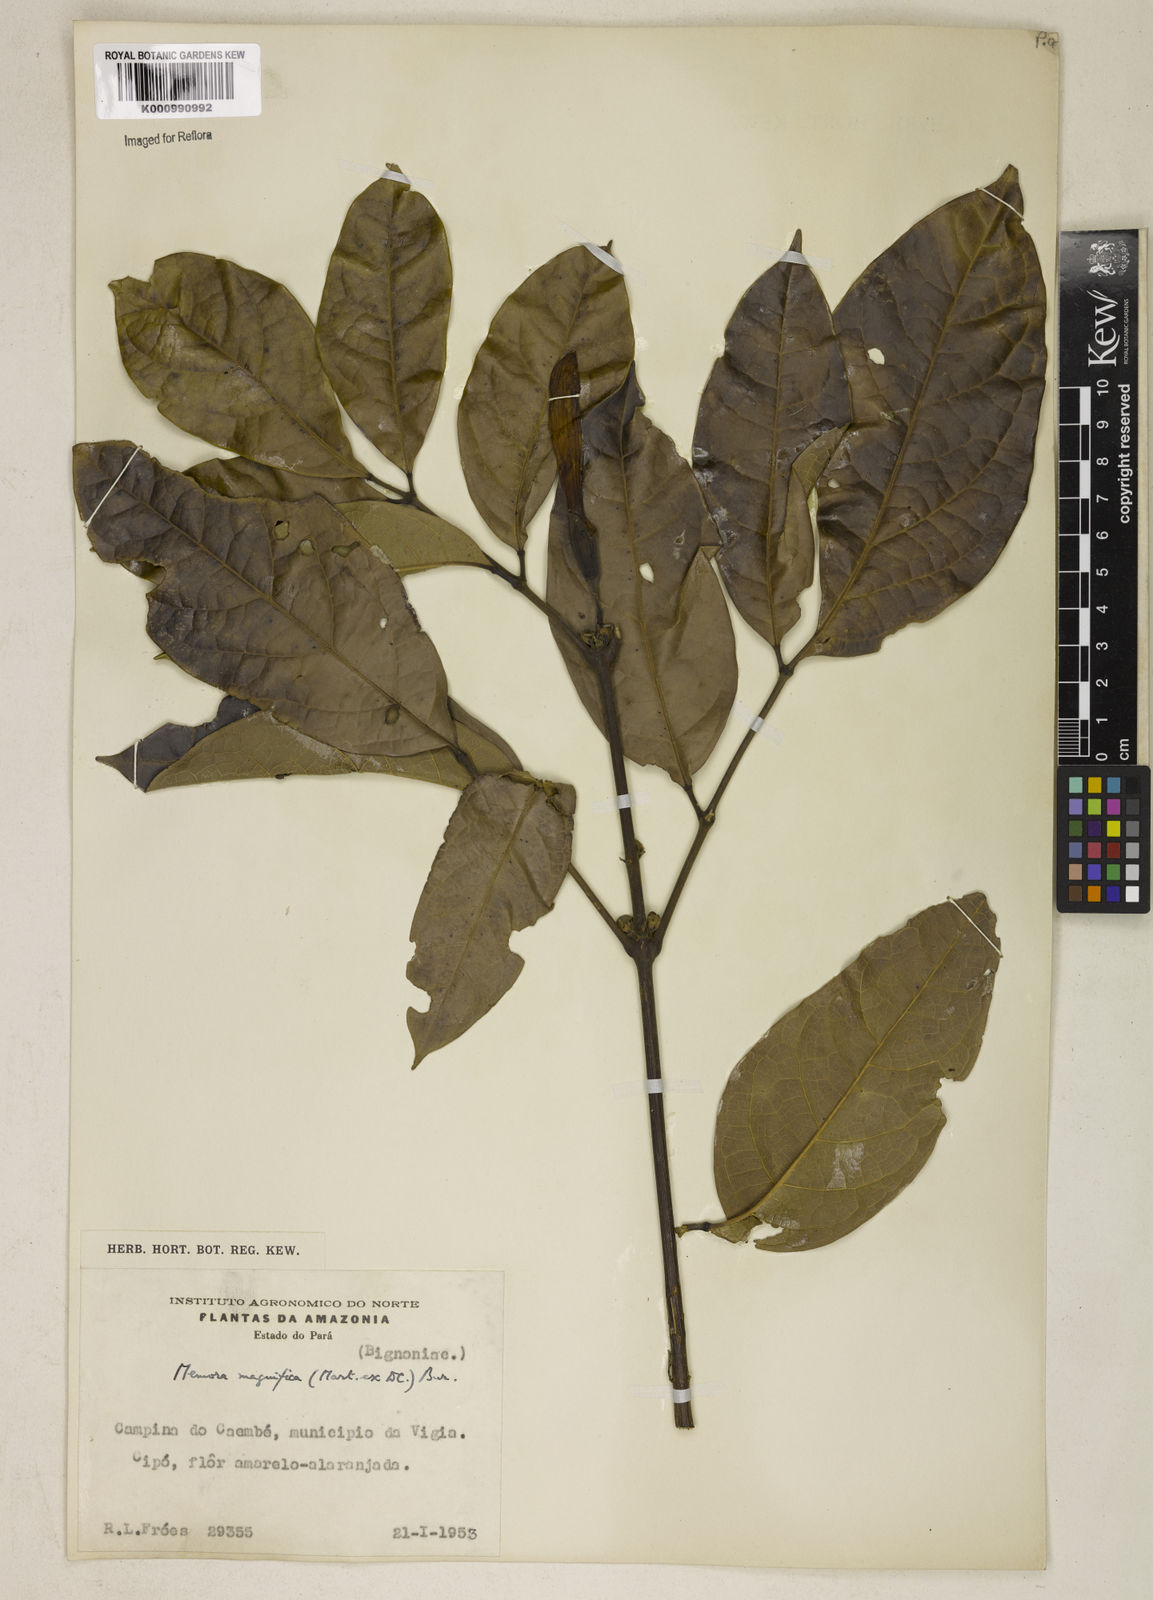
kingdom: Plantae
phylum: Tracheophyta
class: Magnoliopsida
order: Lamiales
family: Bignoniaceae
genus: Adenocalymma
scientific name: Adenocalymma magnificum
